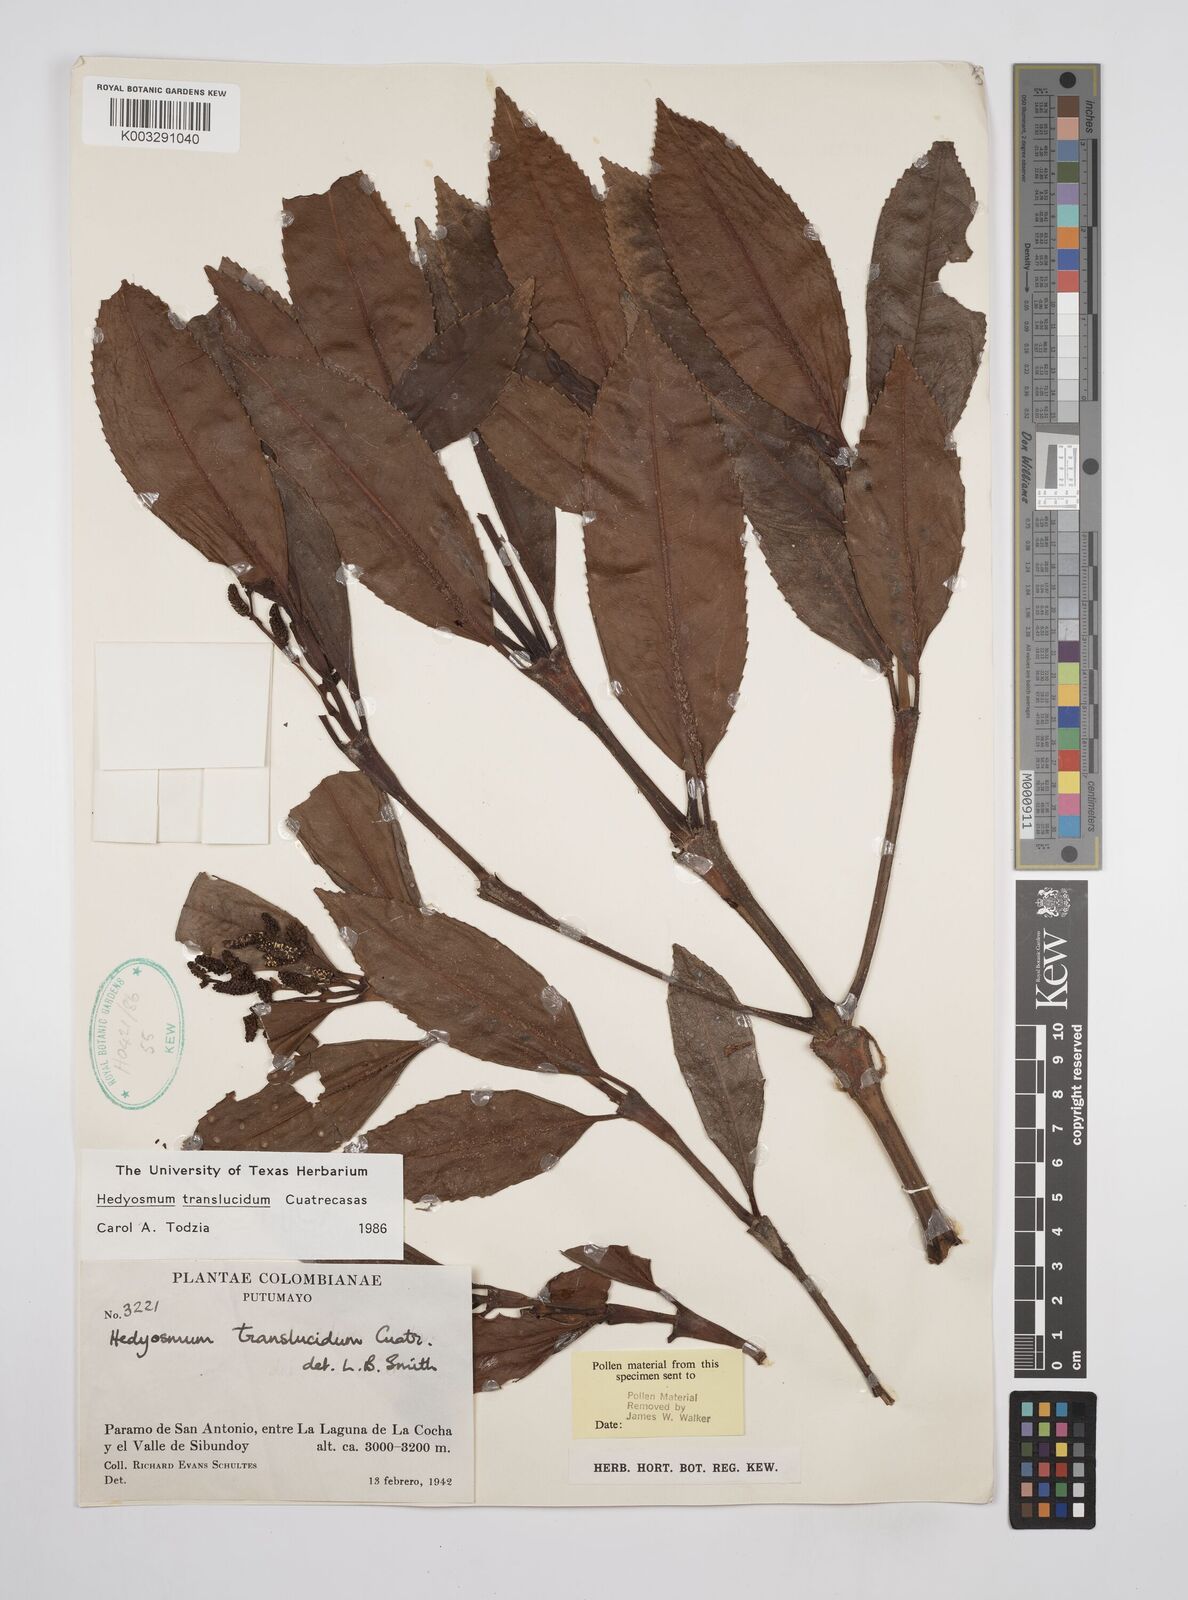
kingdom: Plantae
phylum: Tracheophyta
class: Magnoliopsida
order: Chloranthales
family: Chloranthaceae
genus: Hedyosmum
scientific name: Hedyosmum translucidum
